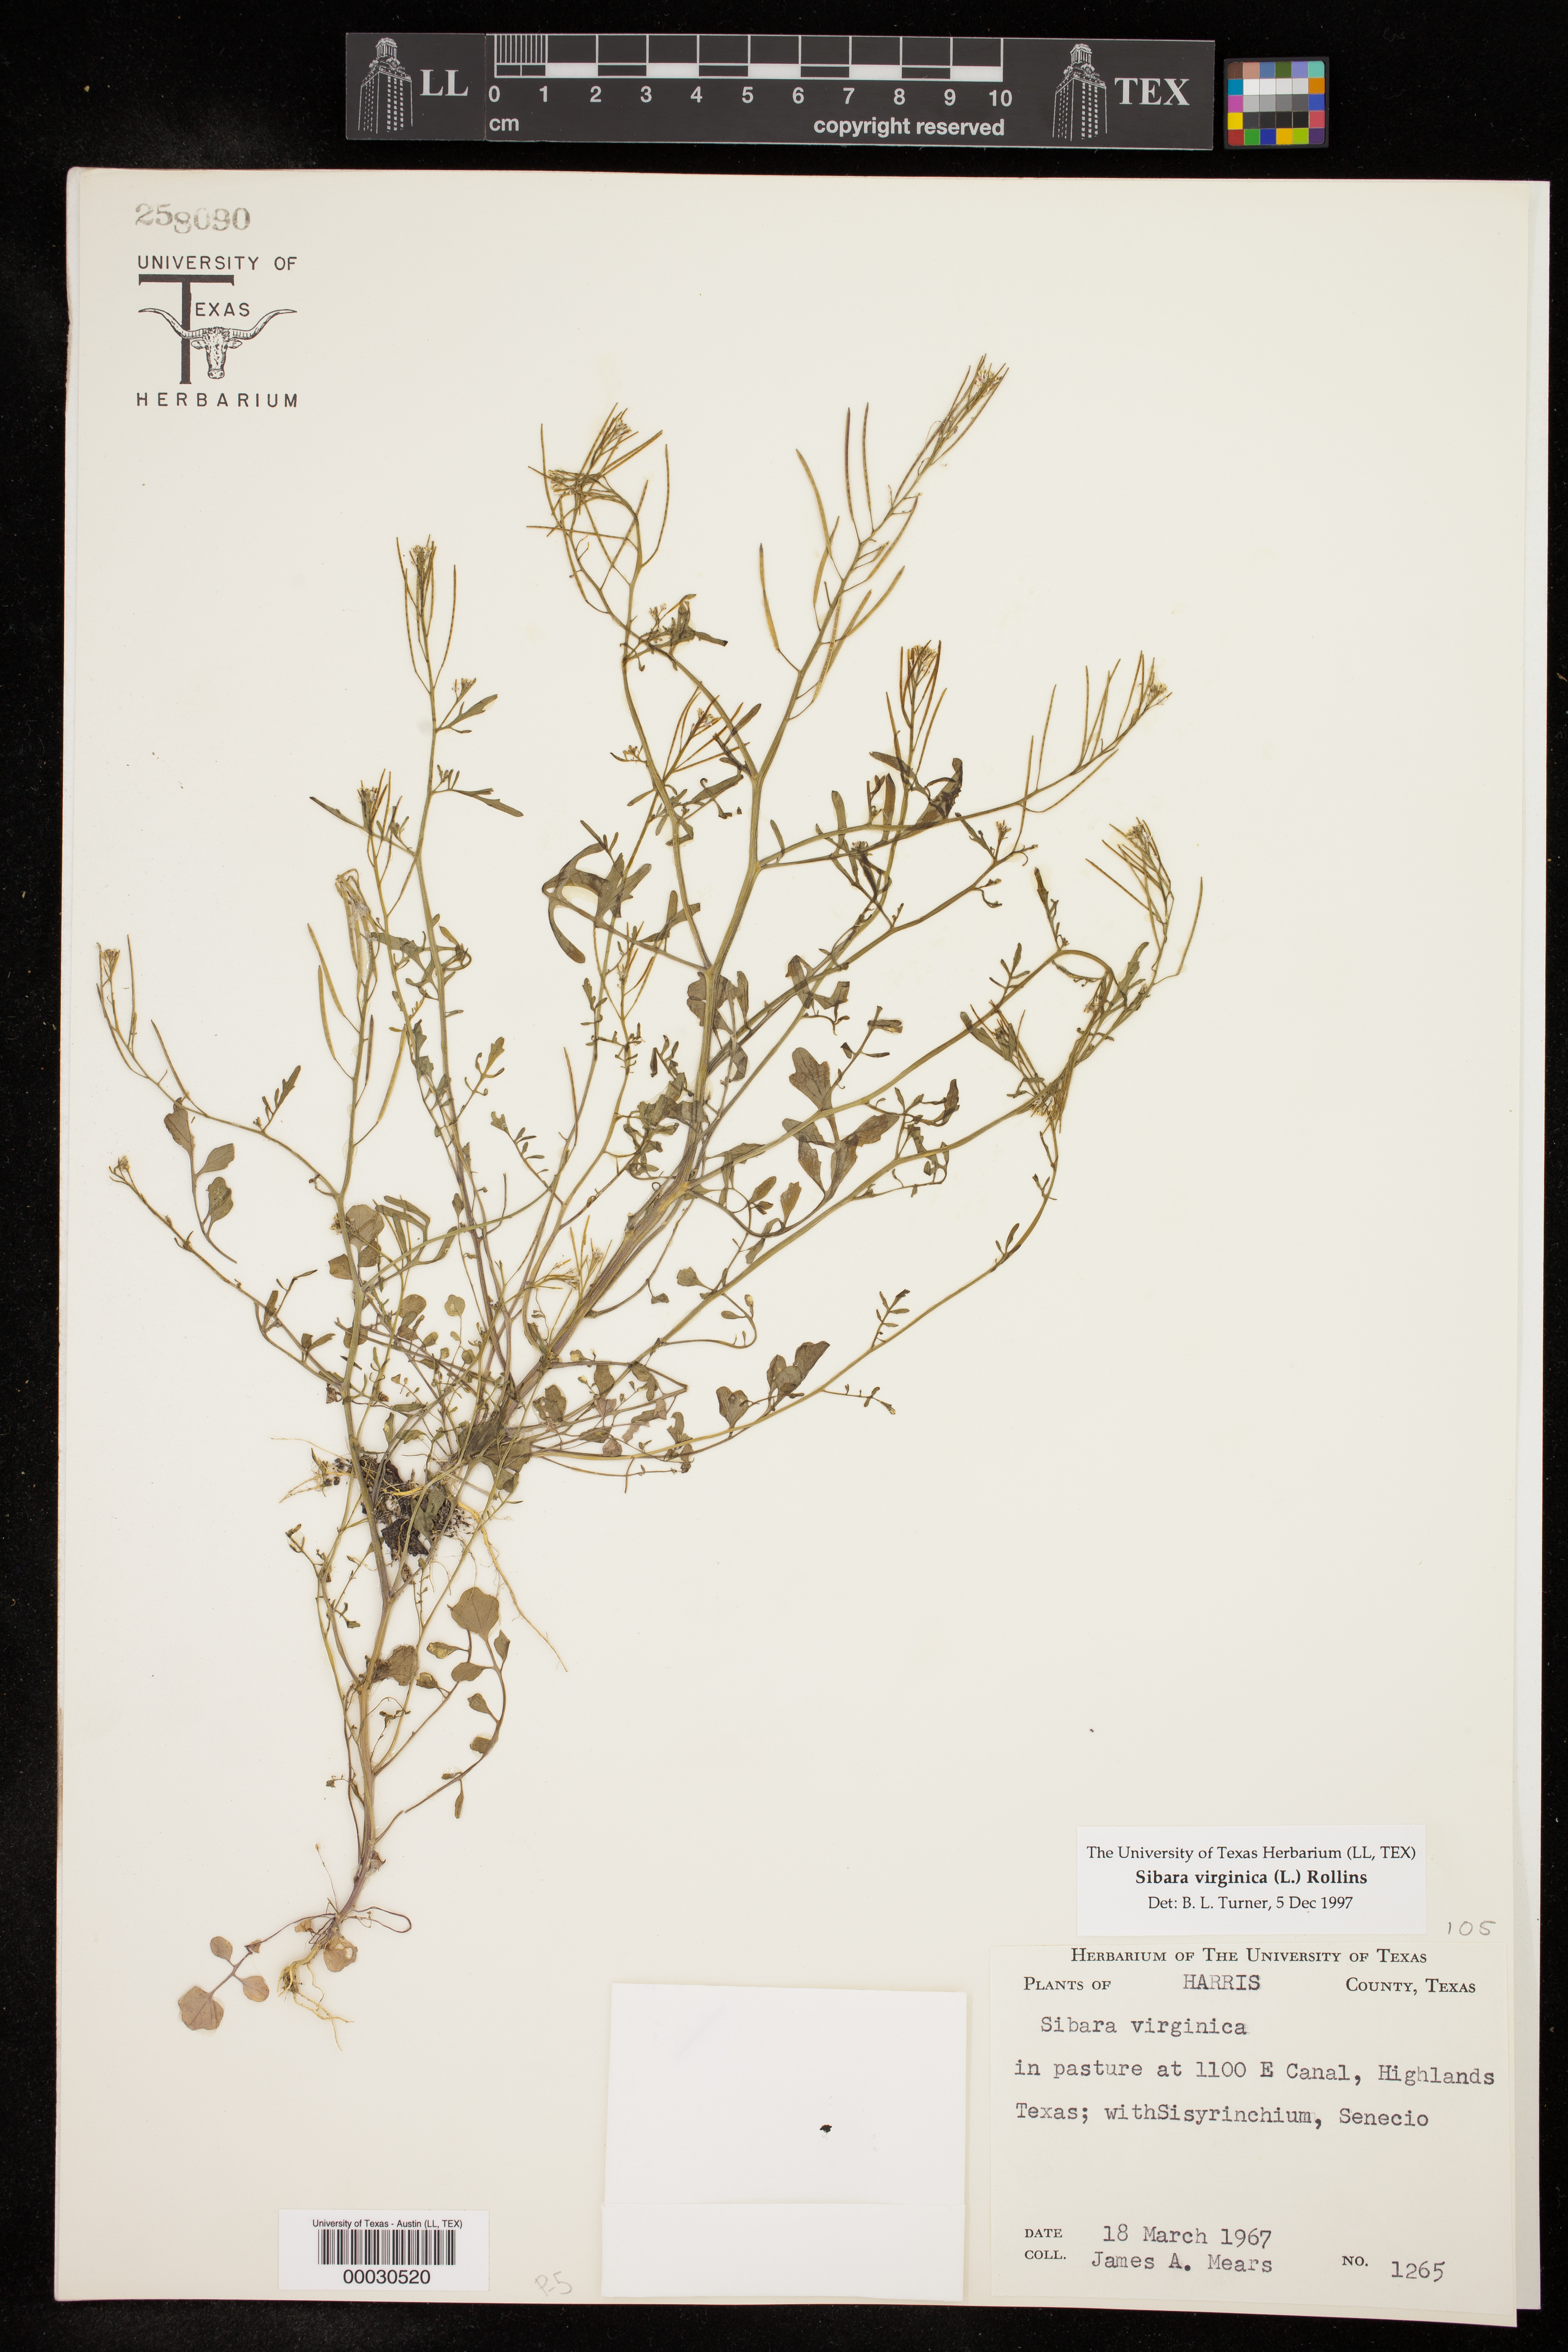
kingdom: Plantae
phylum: Tracheophyta
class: Magnoliopsida
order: Brassicales
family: Brassicaceae
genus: Planodes
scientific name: Planodes virginicum
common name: Virginia cress
